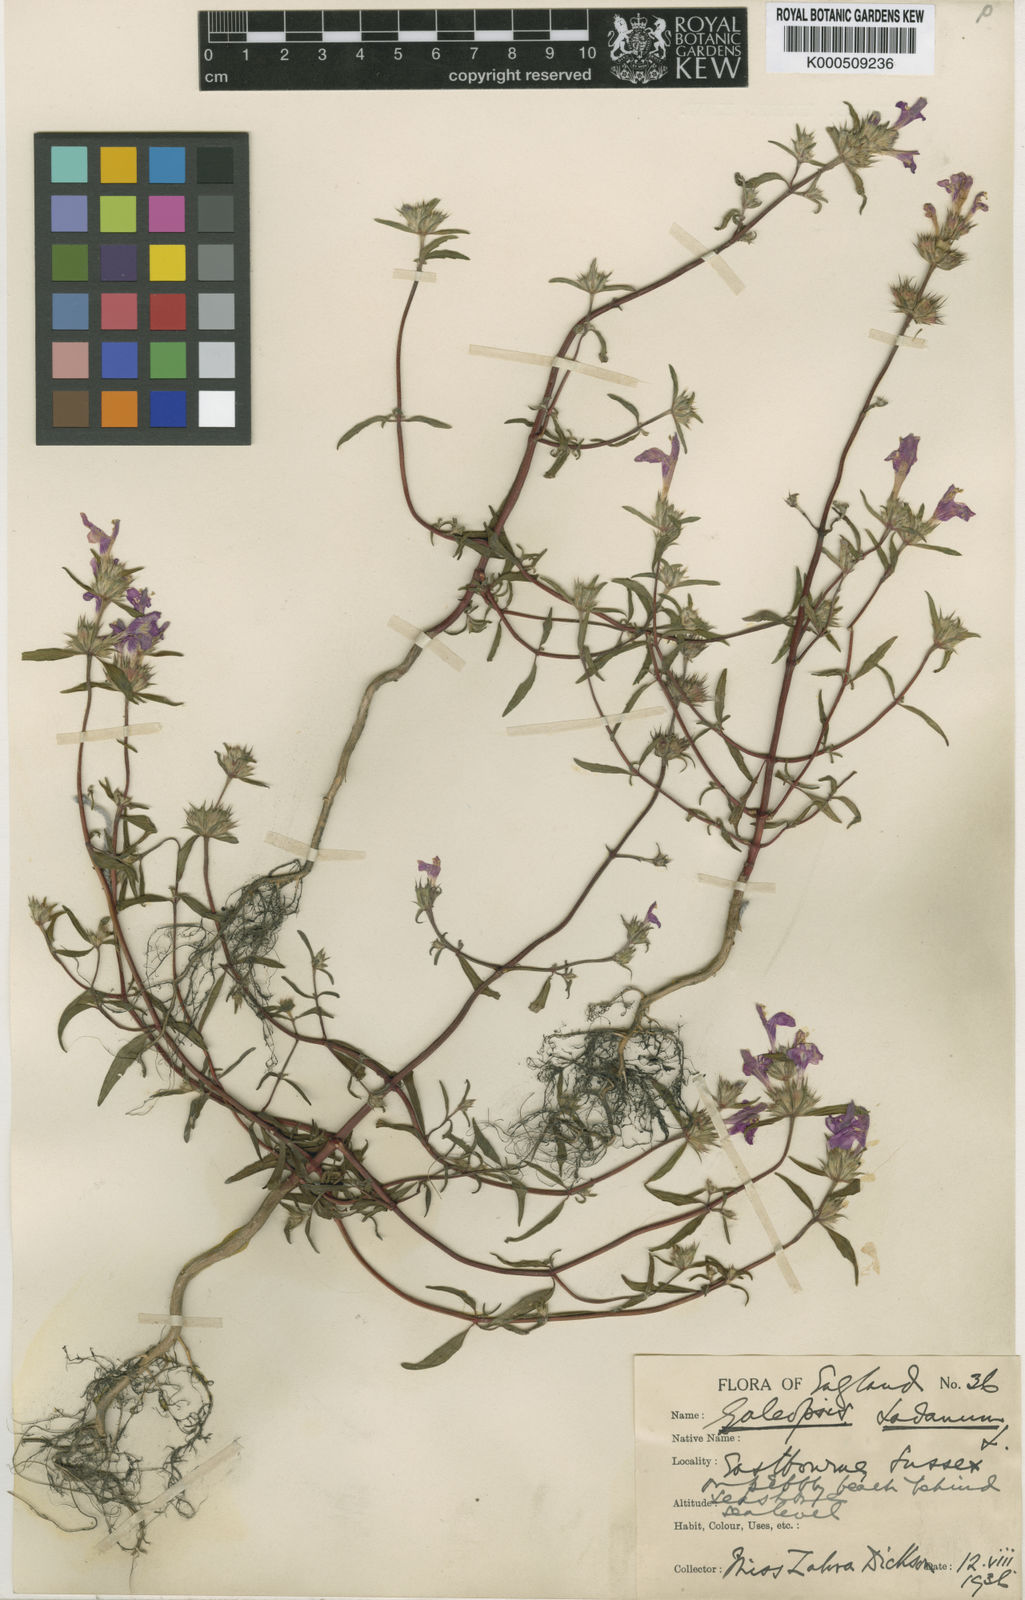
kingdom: Plantae
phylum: Tracheophyta
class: Magnoliopsida
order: Lamiales
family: Lamiaceae
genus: Galeopsis
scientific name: Galeopsis ladanum
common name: Broad-leaved hemp-nettle
